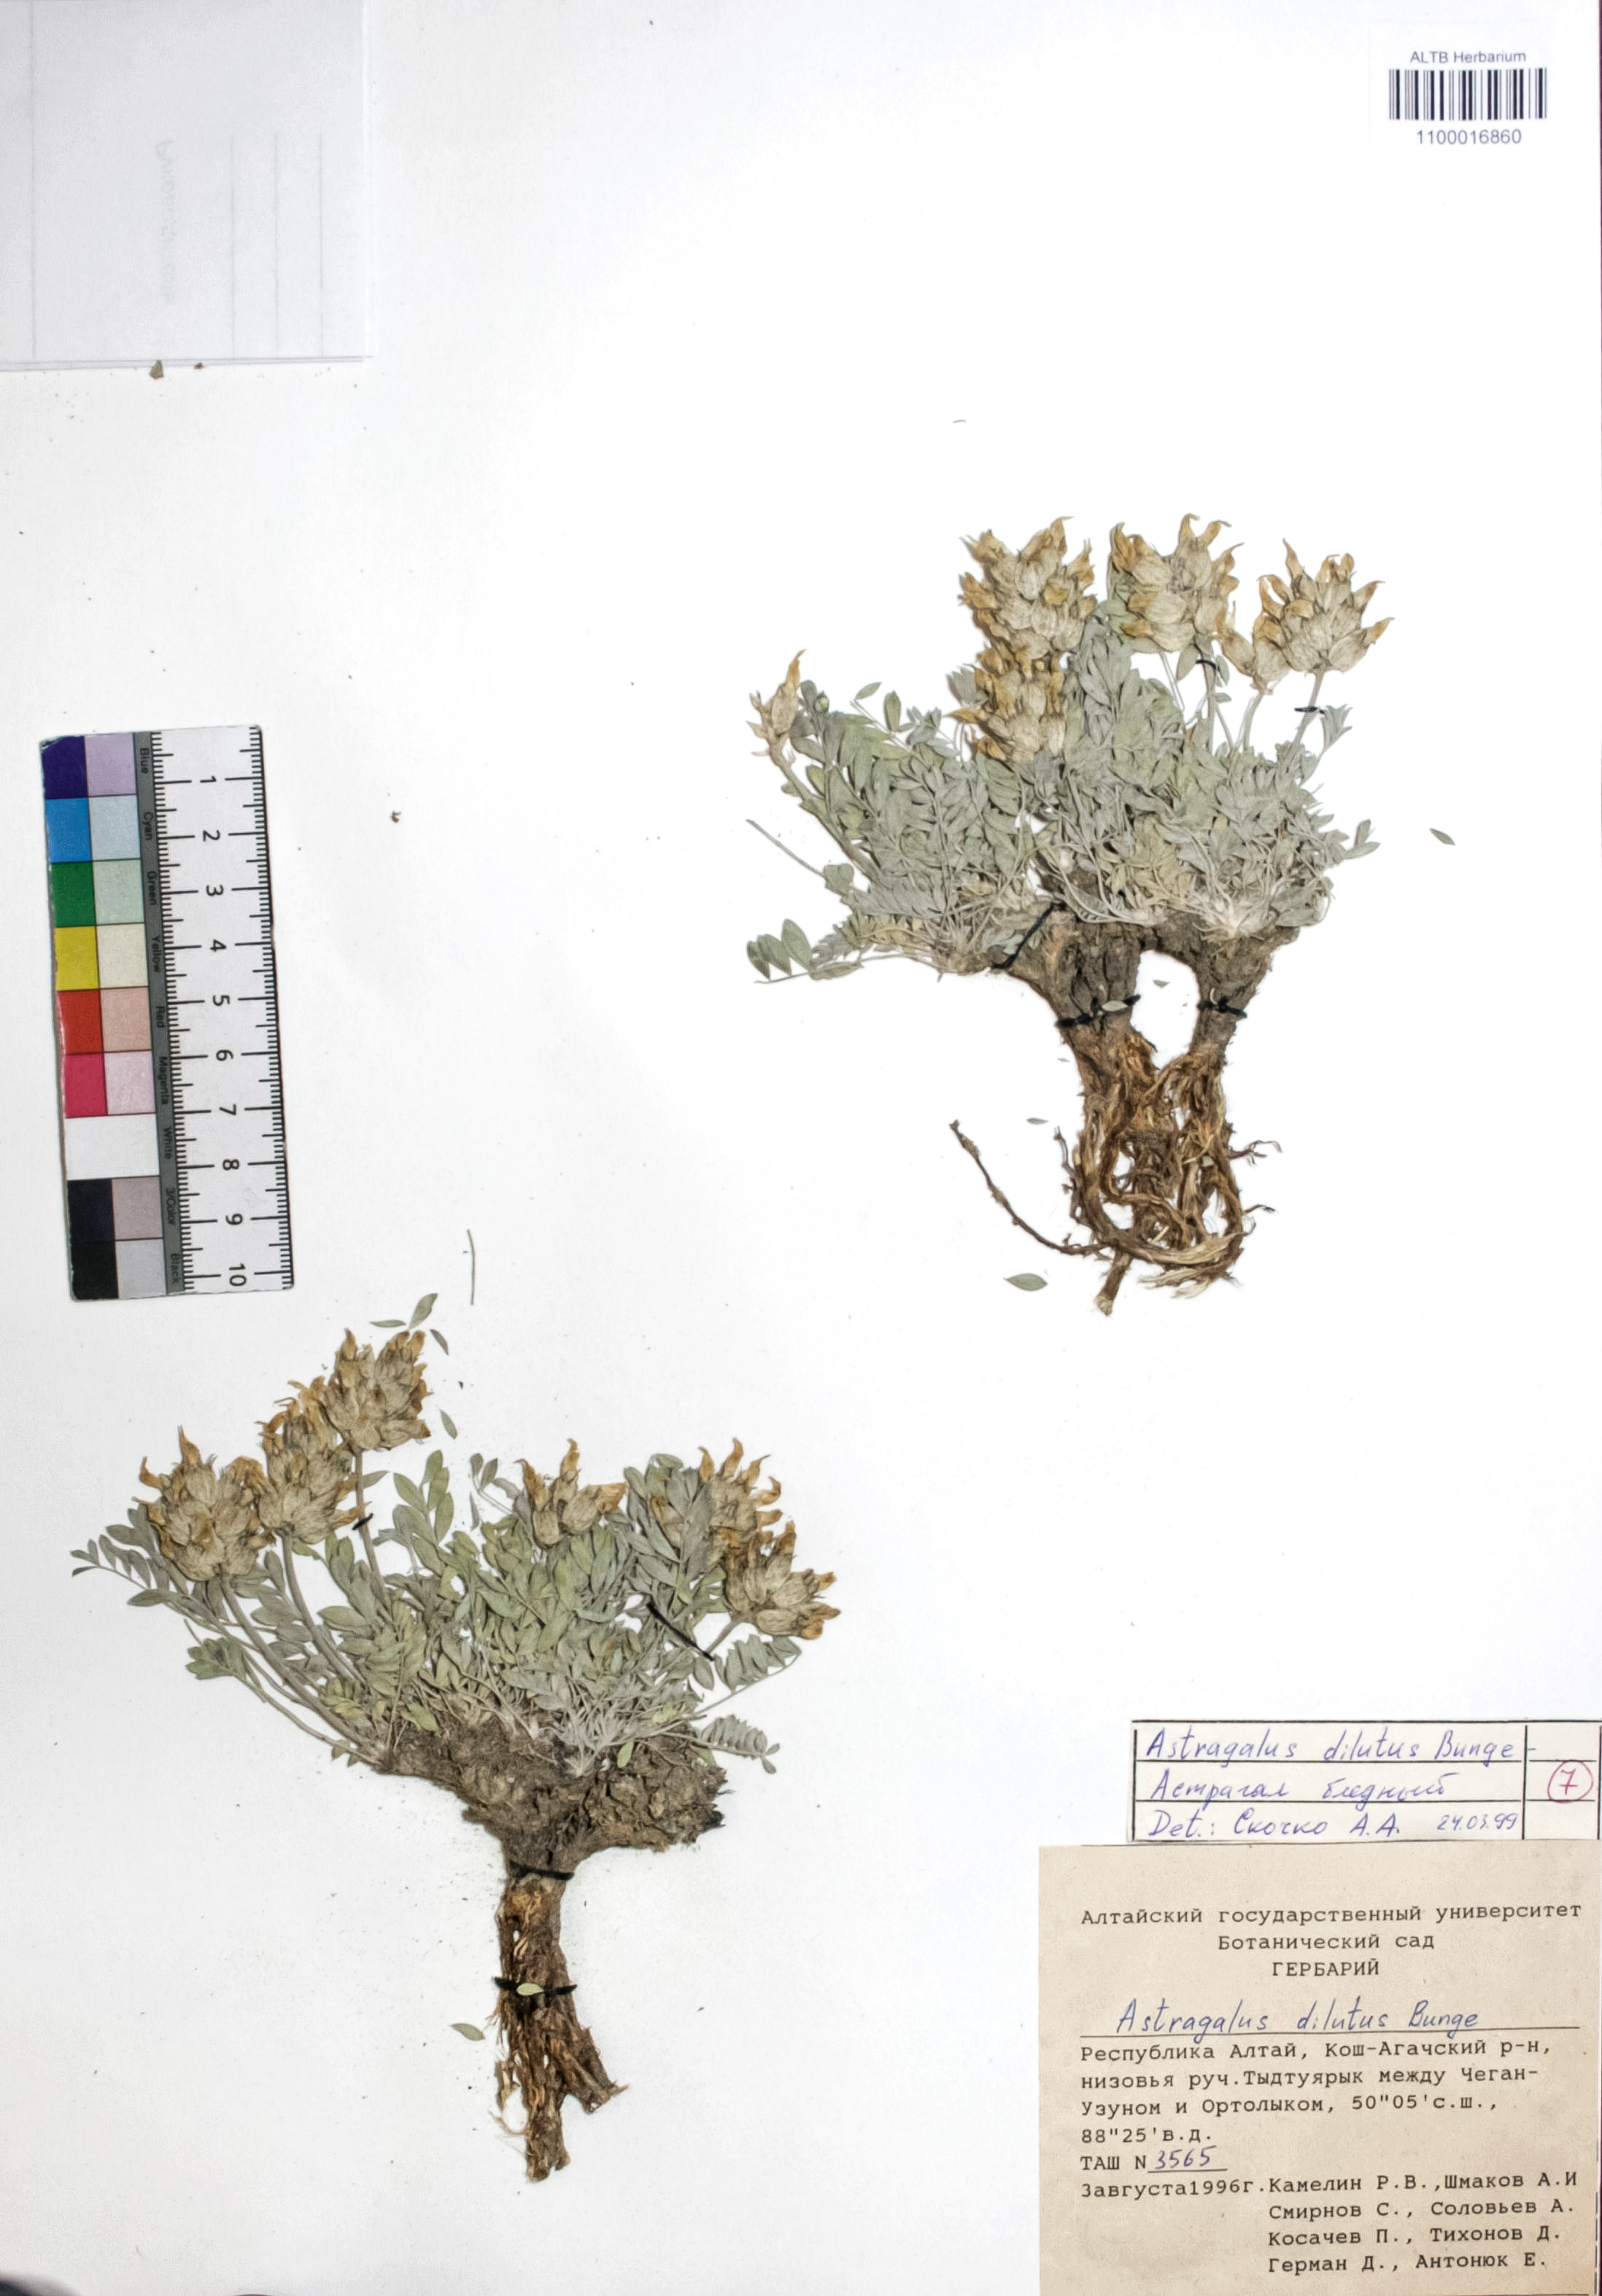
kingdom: Plantae
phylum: Tracheophyta
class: Magnoliopsida
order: Fabales
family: Fabaceae
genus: Astragalus
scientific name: Astragalus dilutus
